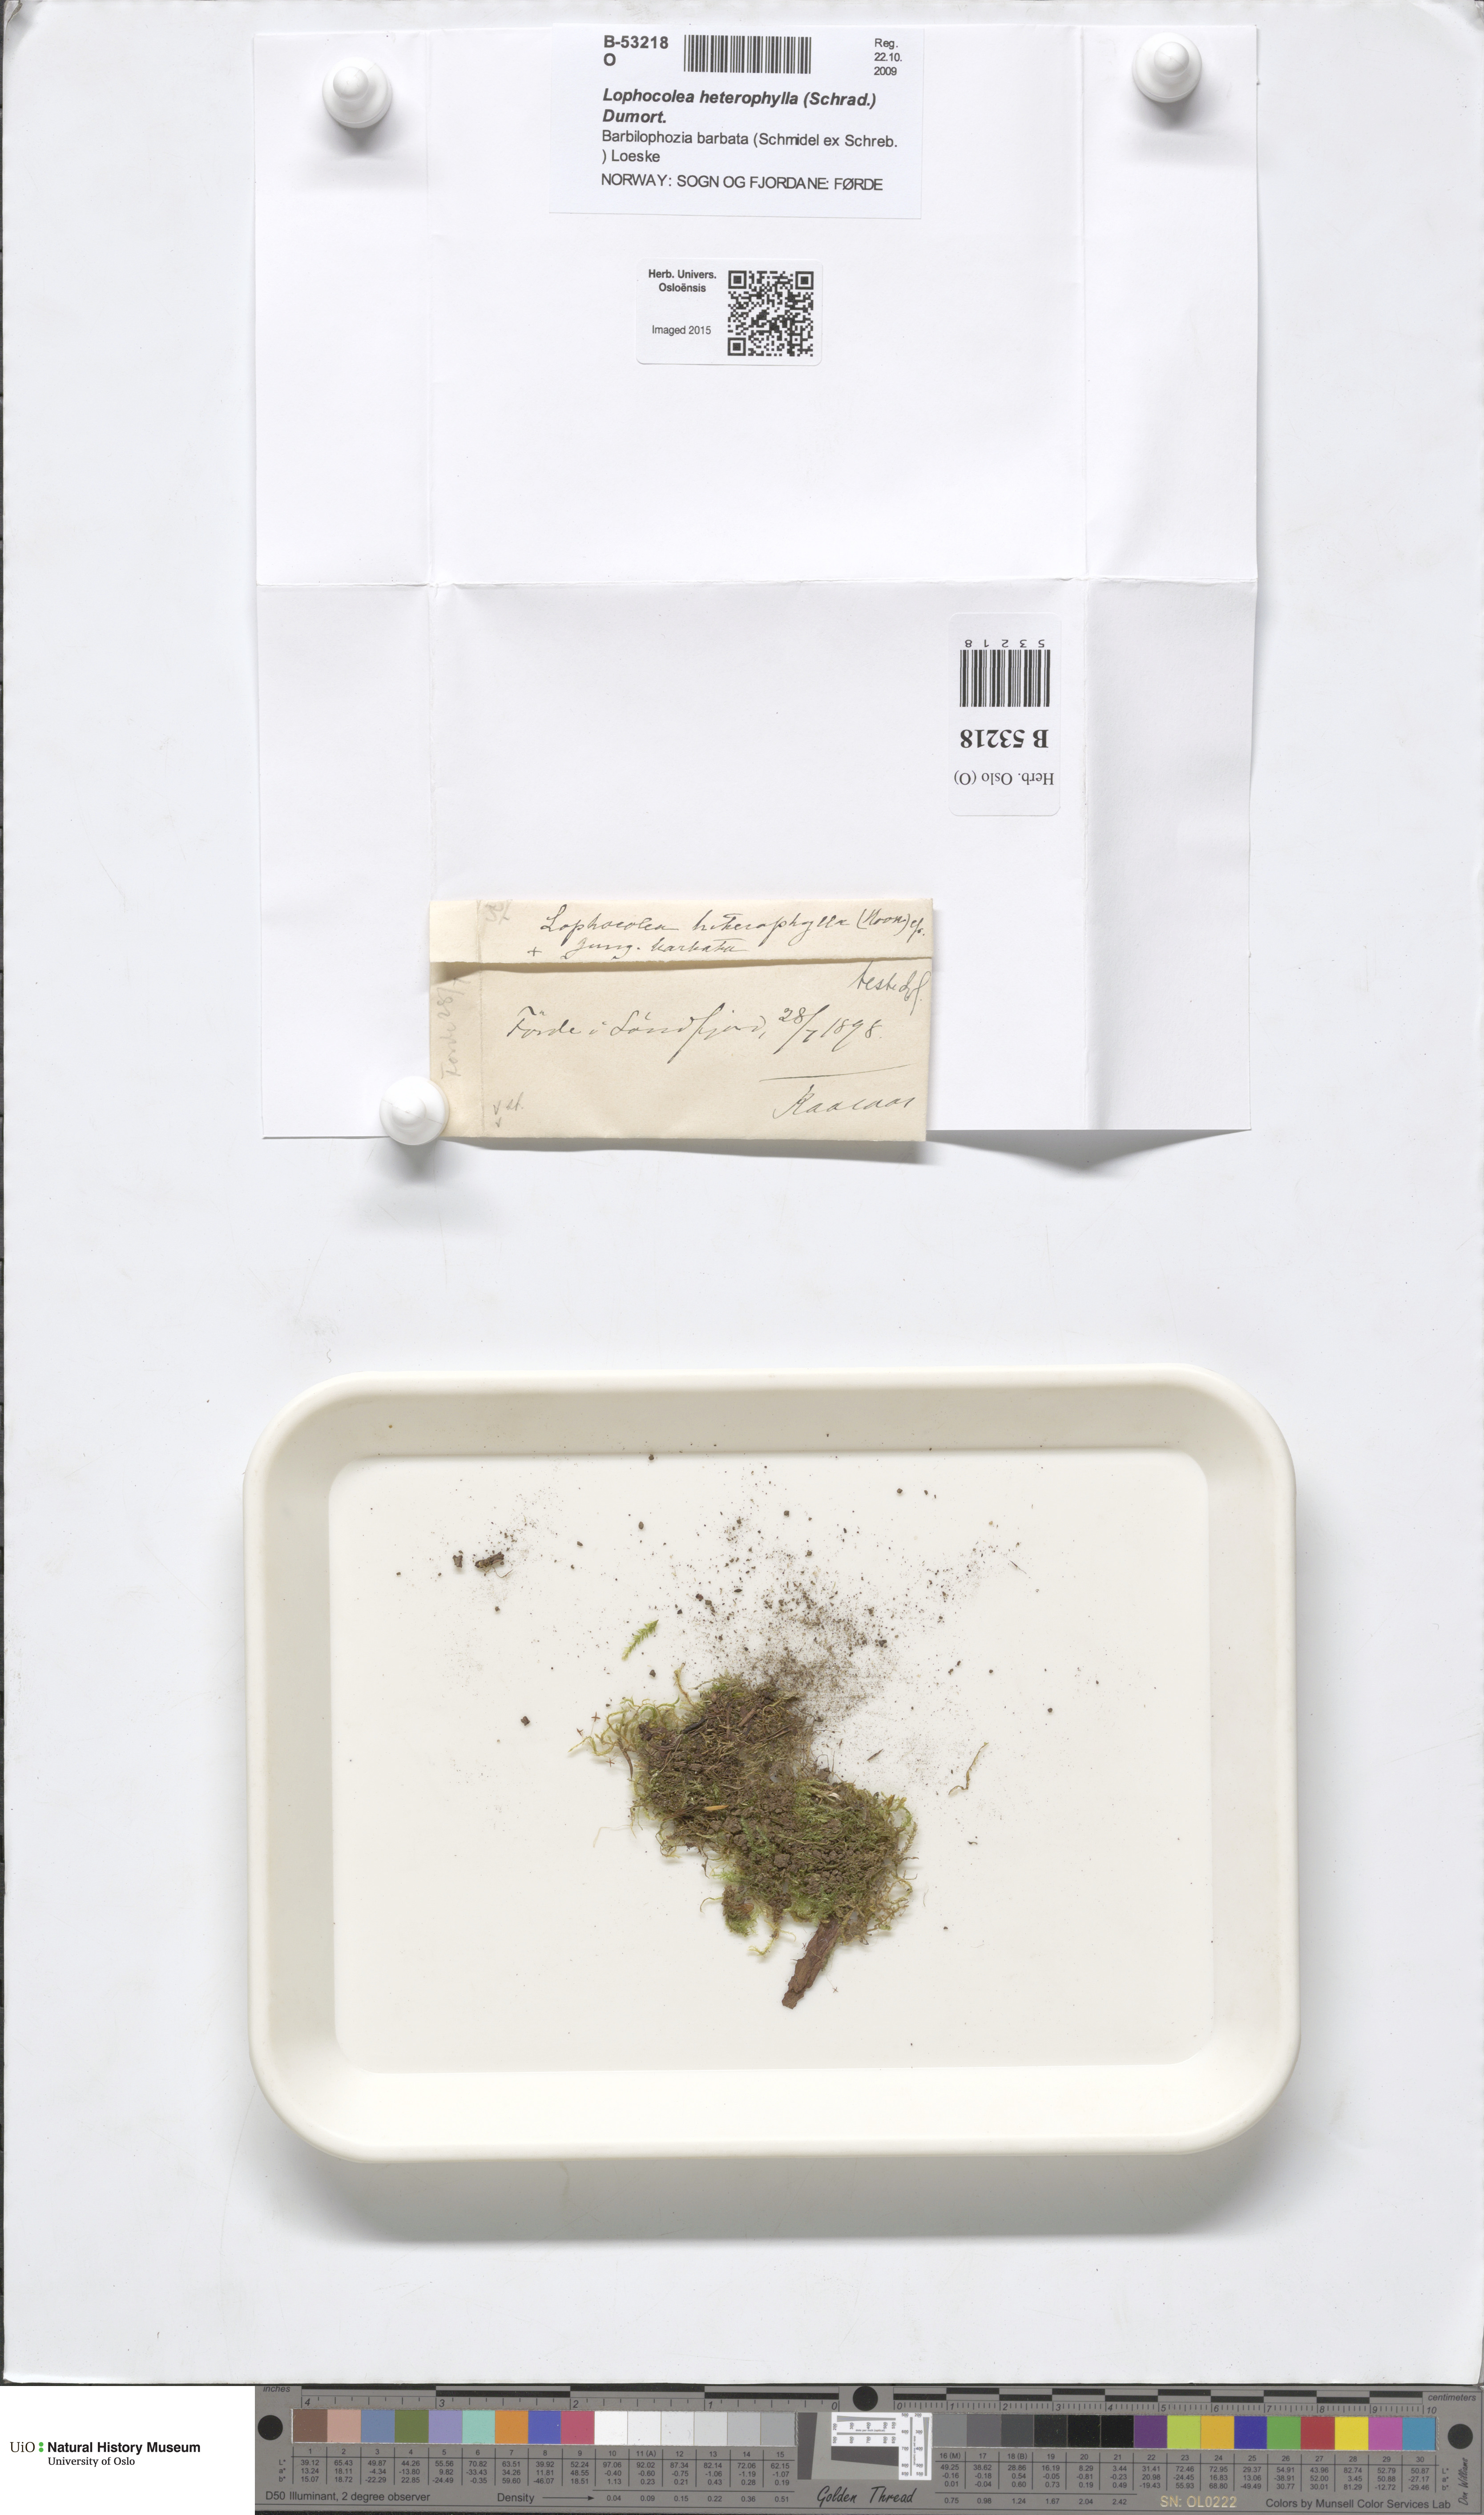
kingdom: Plantae
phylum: Marchantiophyta
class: Jungermanniopsida
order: Jungermanniales
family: Lophocoleaceae
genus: Lophocolea
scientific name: Lophocolea heterophylla
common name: Variable-leaved crestwort
